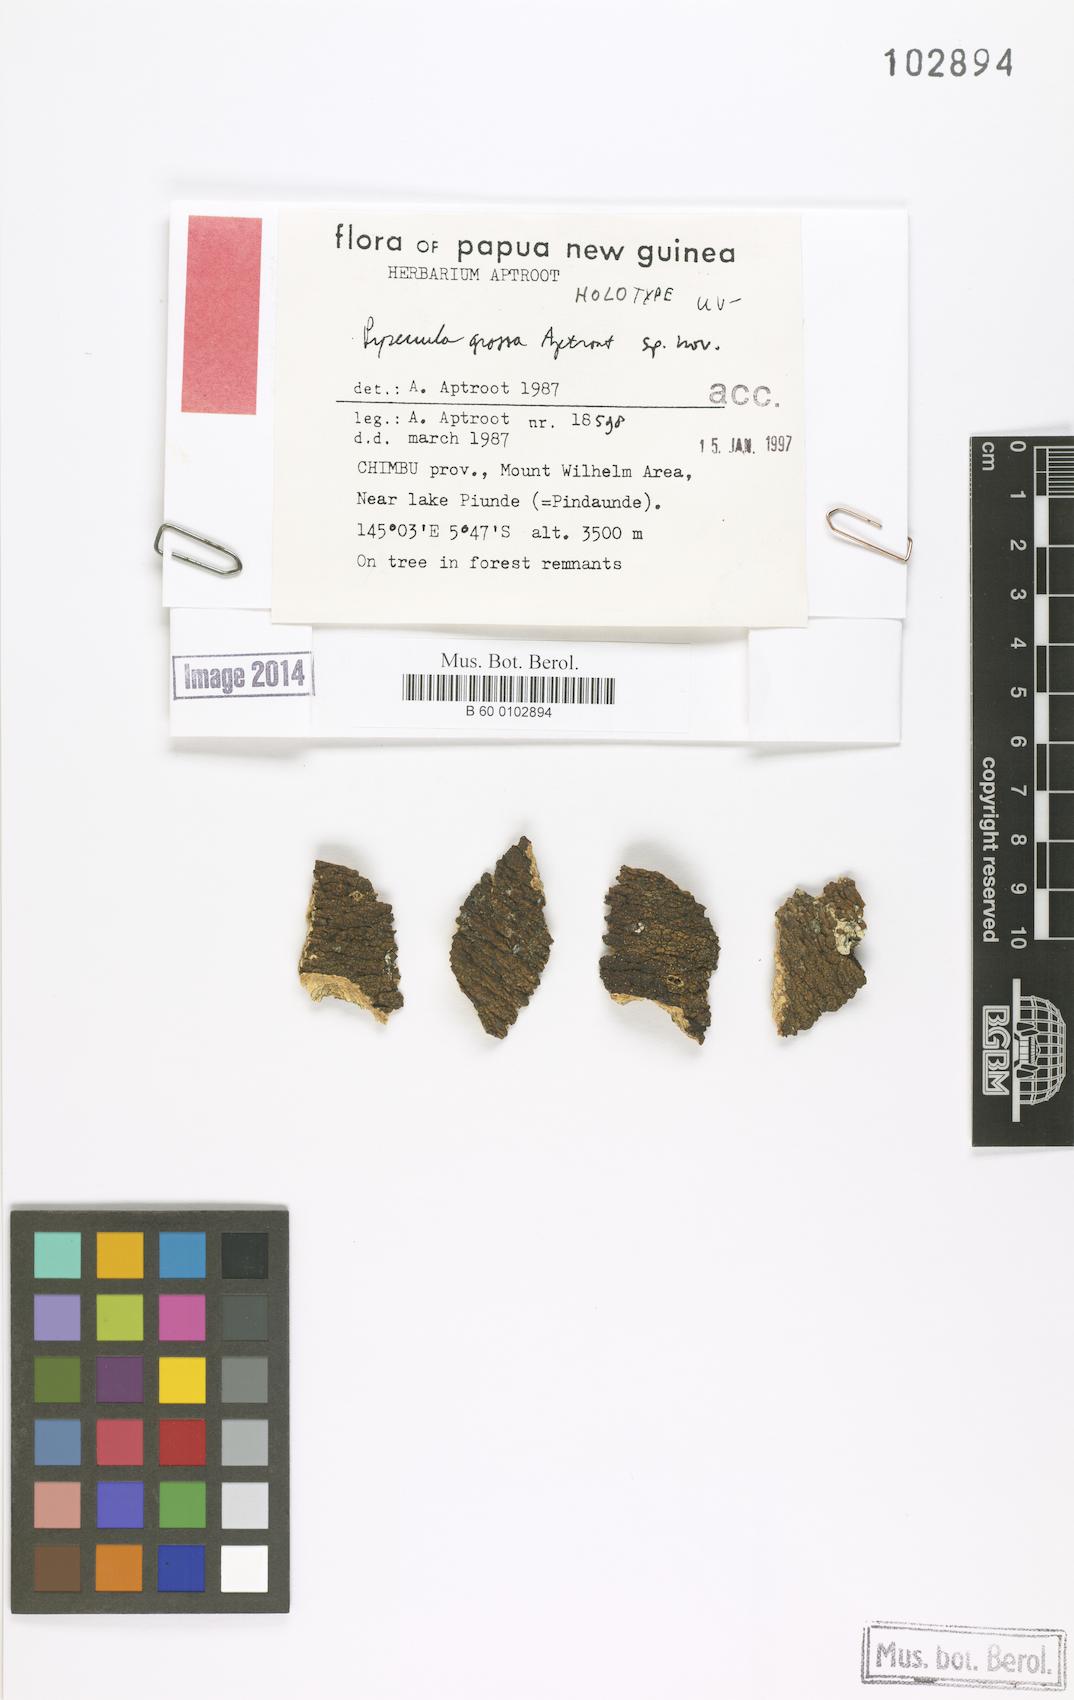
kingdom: Fungi
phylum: Ascomycota
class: Eurotiomycetes
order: Pyrenulales
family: Pyrenulaceae
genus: Pyrenula
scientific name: Pyrenula
